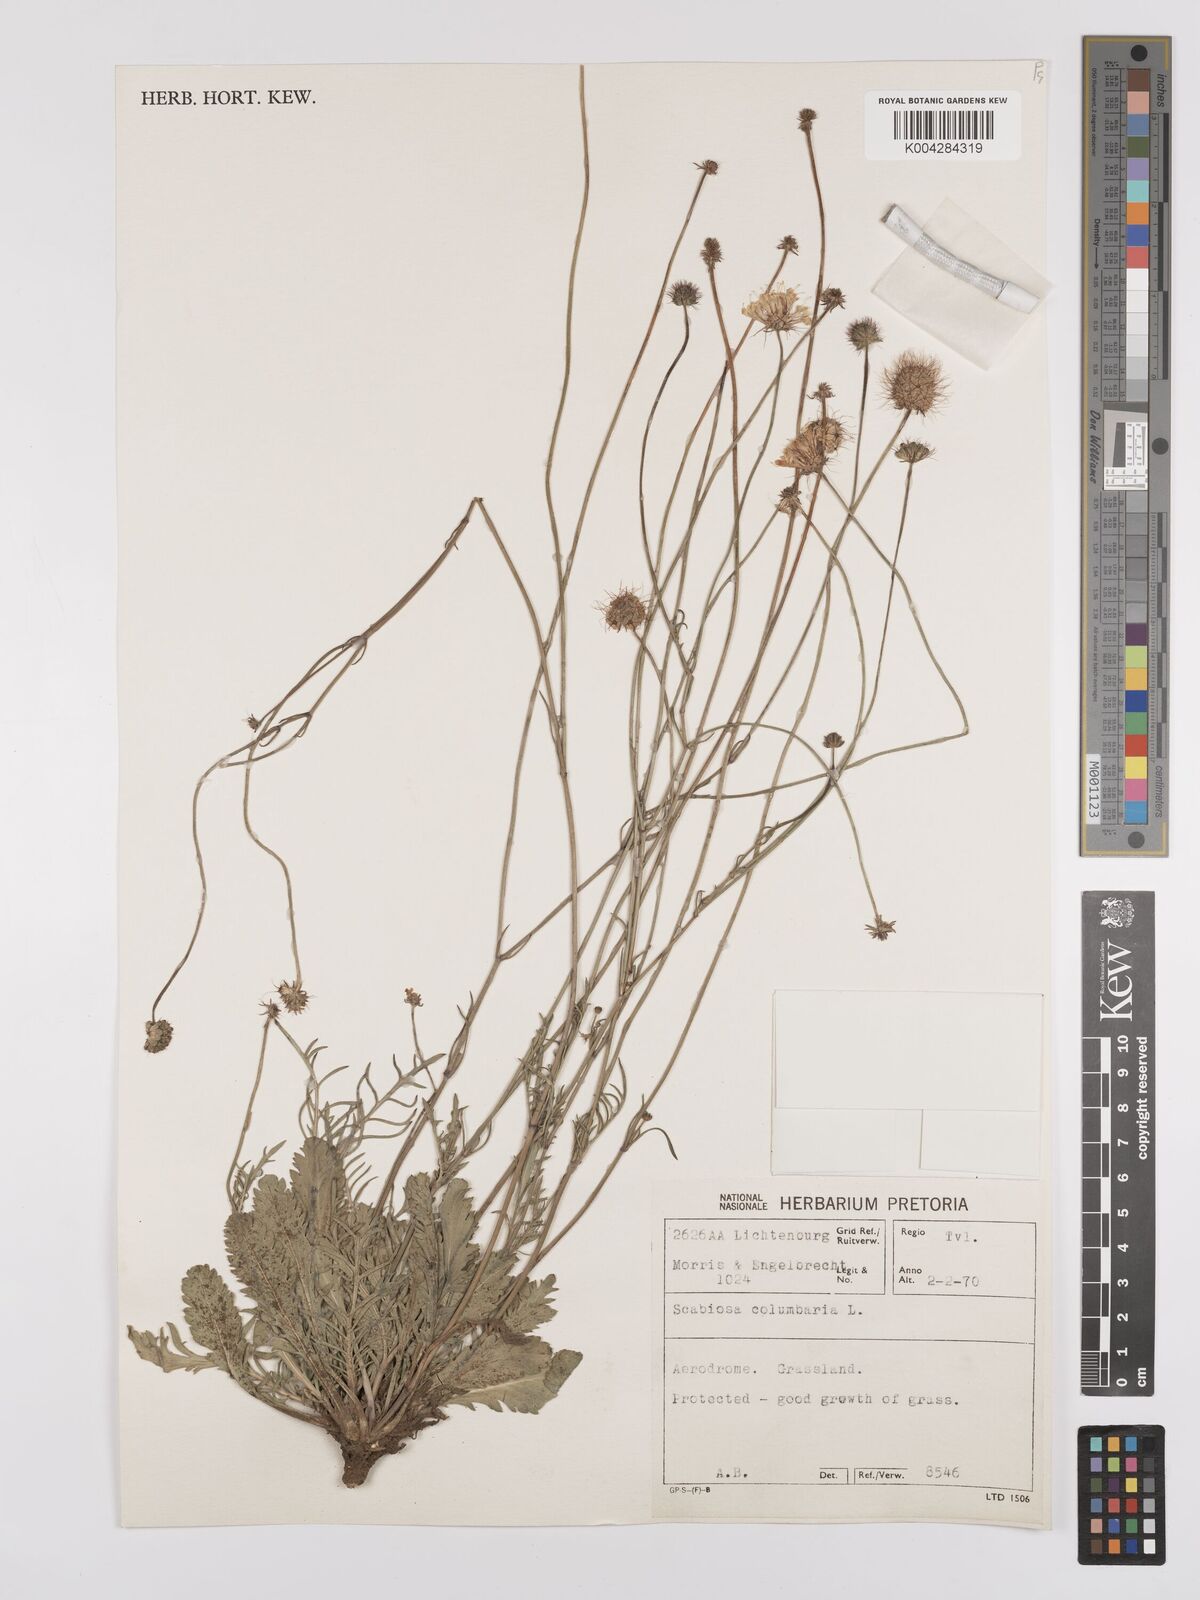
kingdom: Plantae
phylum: Tracheophyta
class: Magnoliopsida
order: Dipsacales
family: Caprifoliaceae
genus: Scabiosa
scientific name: Scabiosa austroafricana
